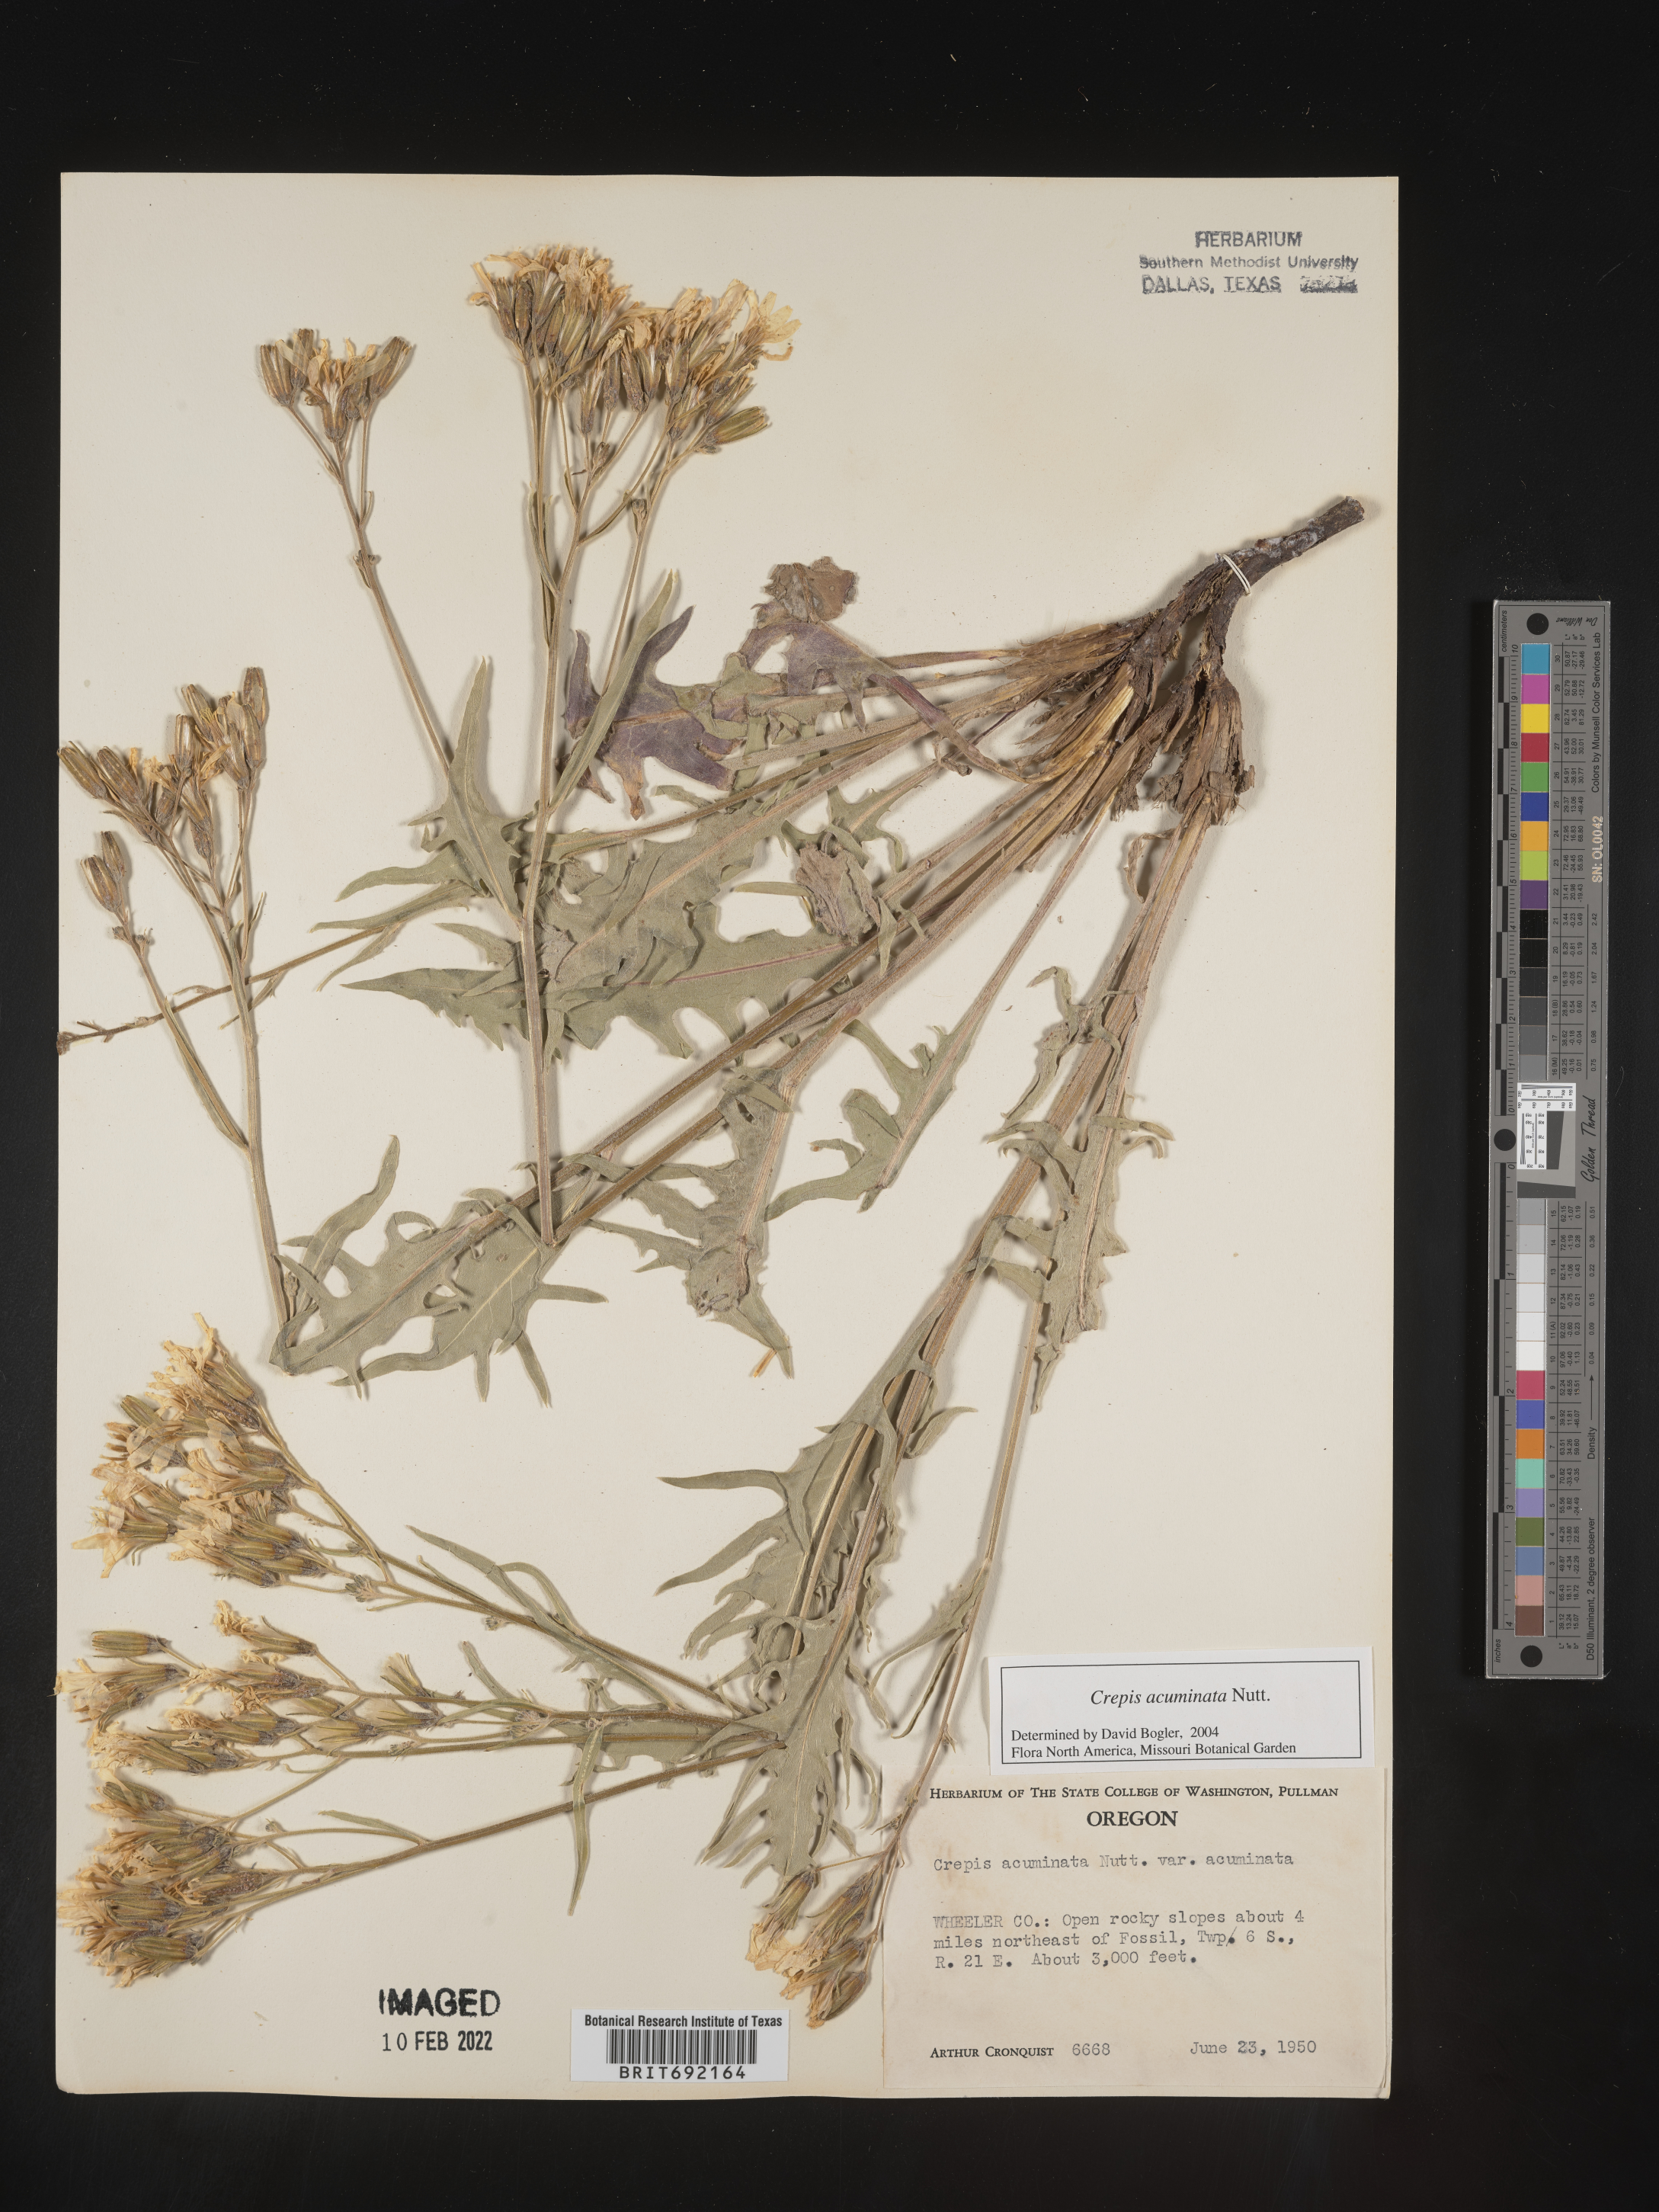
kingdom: Plantae
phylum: Tracheophyta
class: Magnoliopsida
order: Asterales
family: Asteraceae
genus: Crepis
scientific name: Crepis acuminata
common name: Longleaf hawk's-beard
